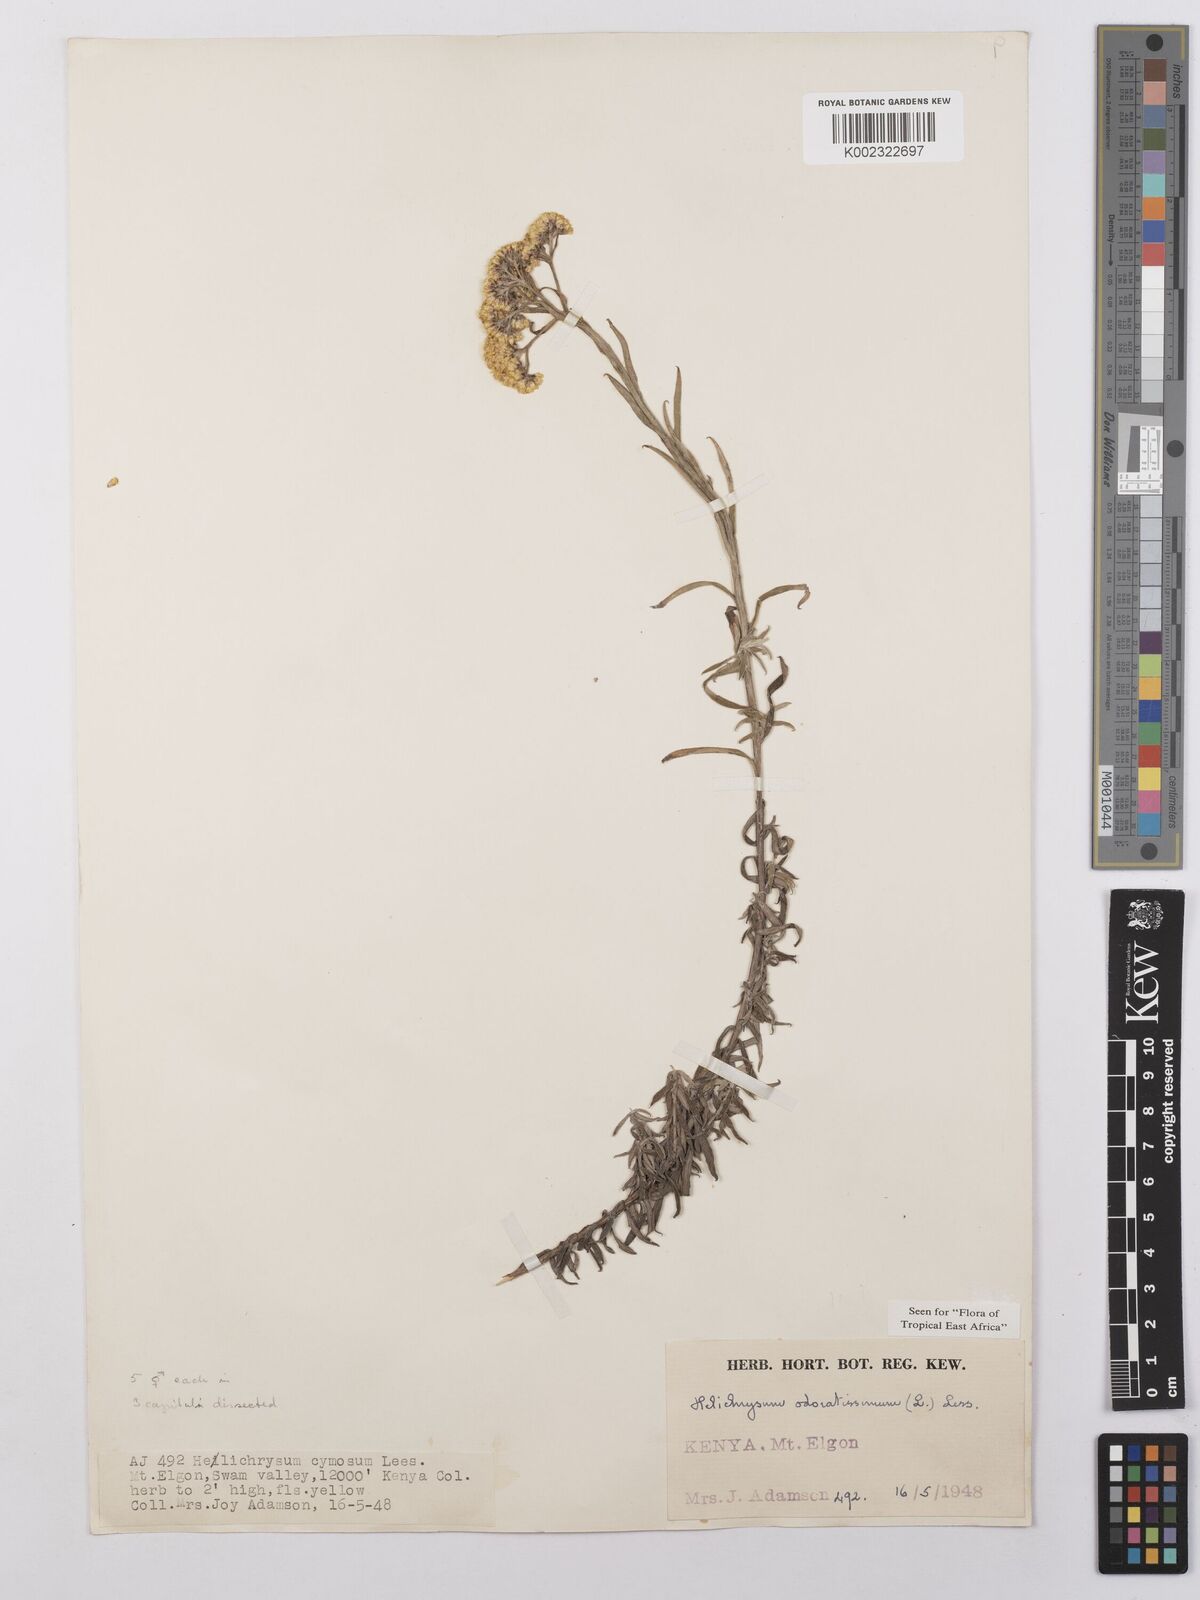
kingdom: Plantae
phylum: Tracheophyta
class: Magnoliopsida
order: Asterales
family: Asteraceae
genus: Helichrysum
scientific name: Helichrysum odoratissimum
